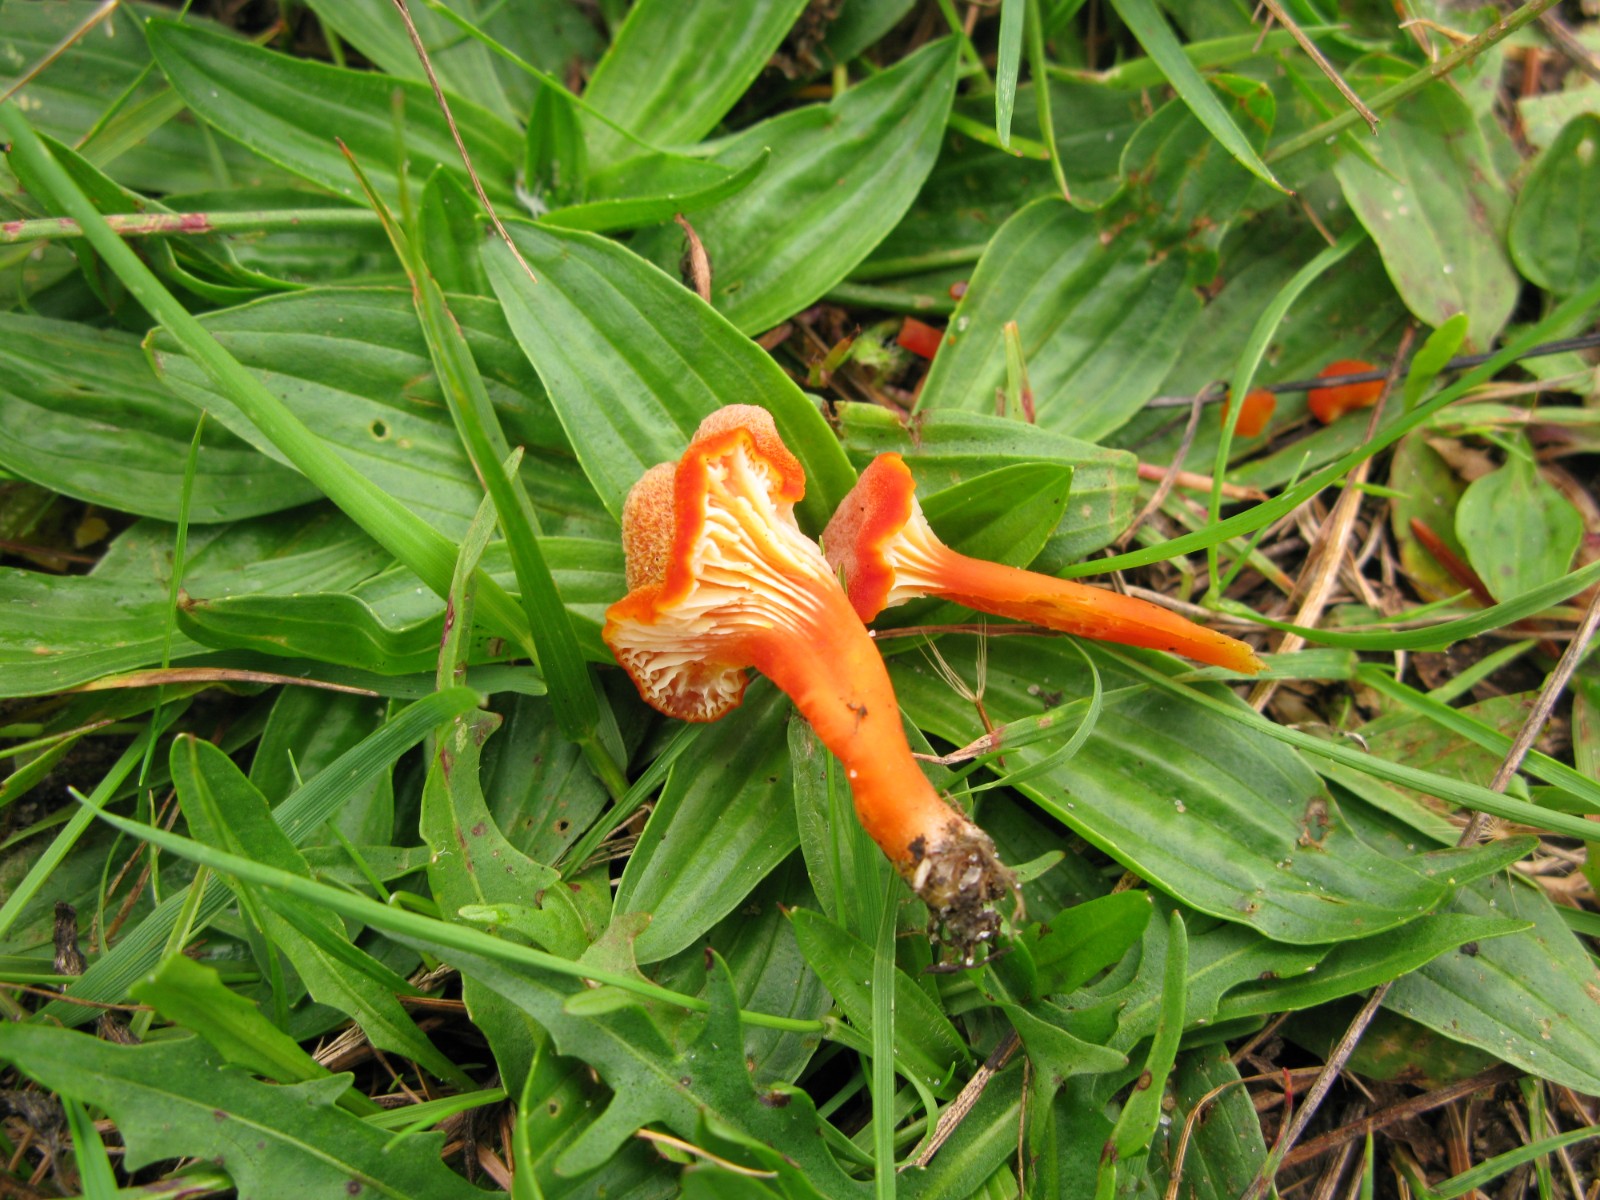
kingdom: Fungi
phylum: Basidiomycota
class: Agaricomycetes
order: Agaricales
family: Hygrophoraceae
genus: Hygrocybe
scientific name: Hygrocybe cantharellus
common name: kantarel-vokshat
